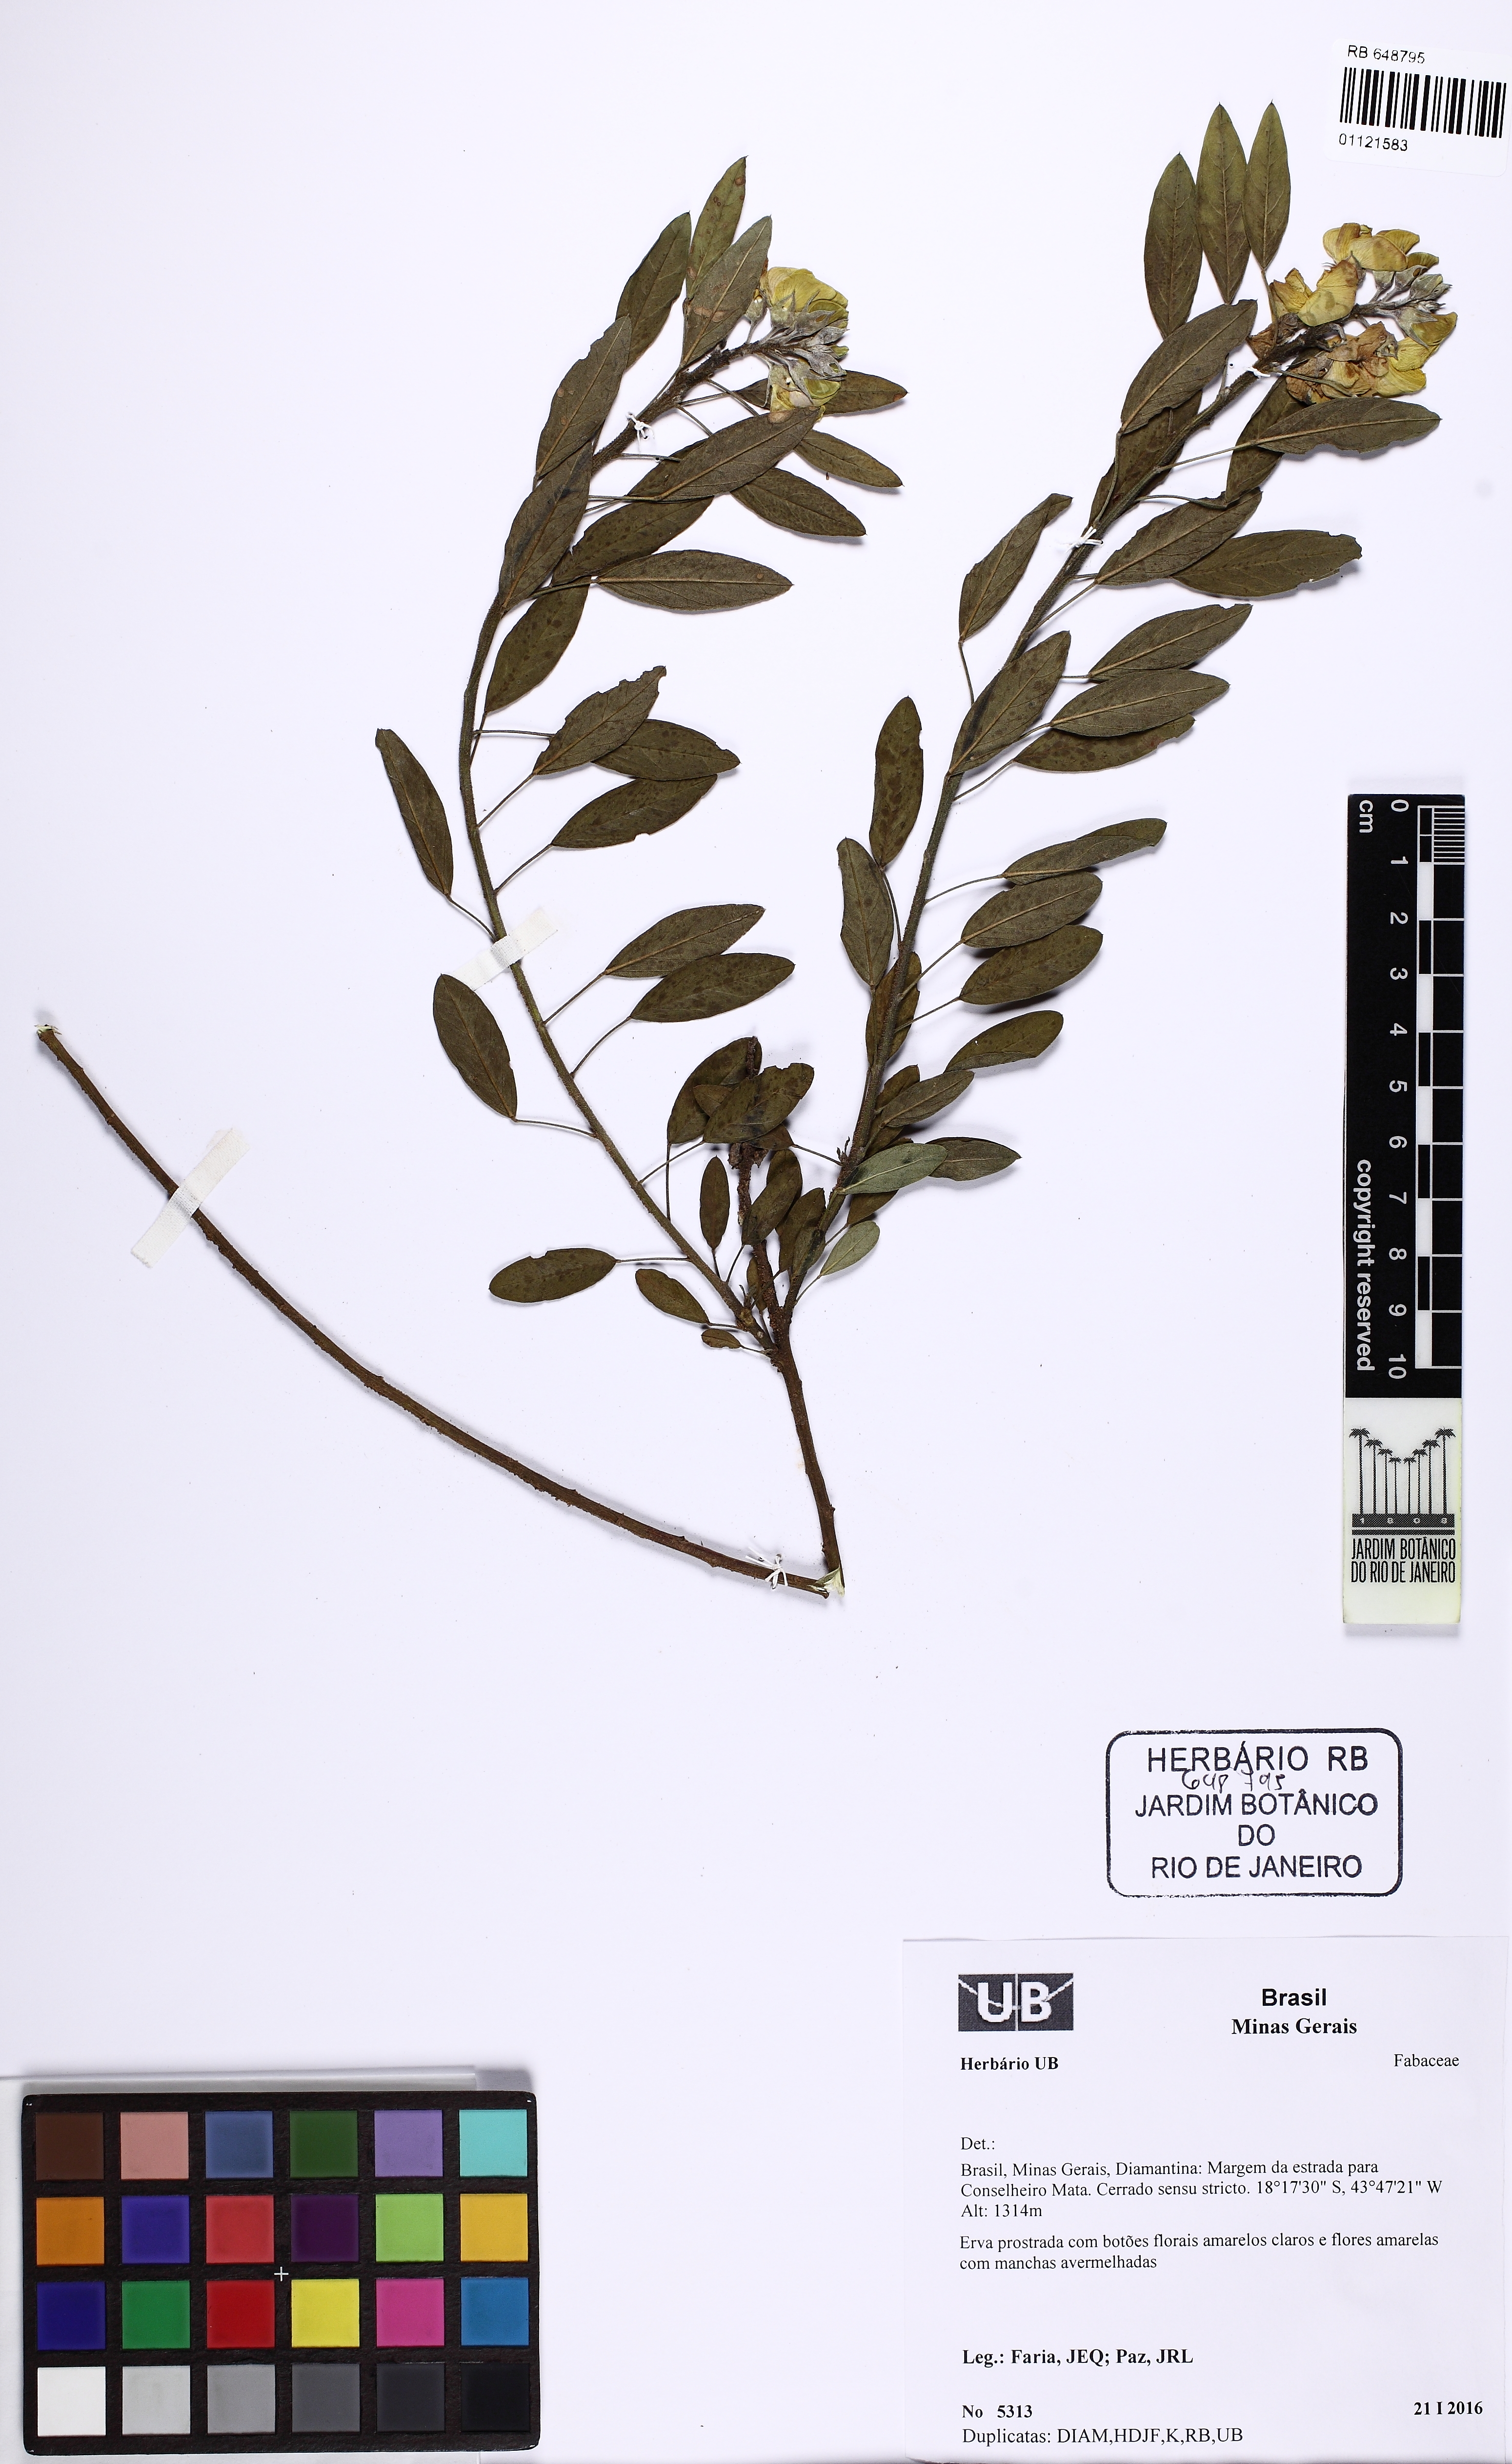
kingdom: Plantae
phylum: Tracheophyta
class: Magnoliopsida
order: Fabales
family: Fabaceae
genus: Crotalaria
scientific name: Crotalaria
